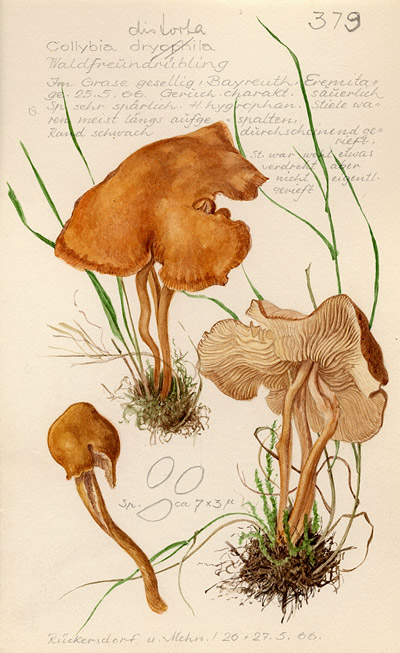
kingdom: Fungi
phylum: Basidiomycota
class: Agaricomycetes
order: Agaricales
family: Omphalotaceae
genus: Rhodocollybia
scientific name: Rhodocollybia prolixa
